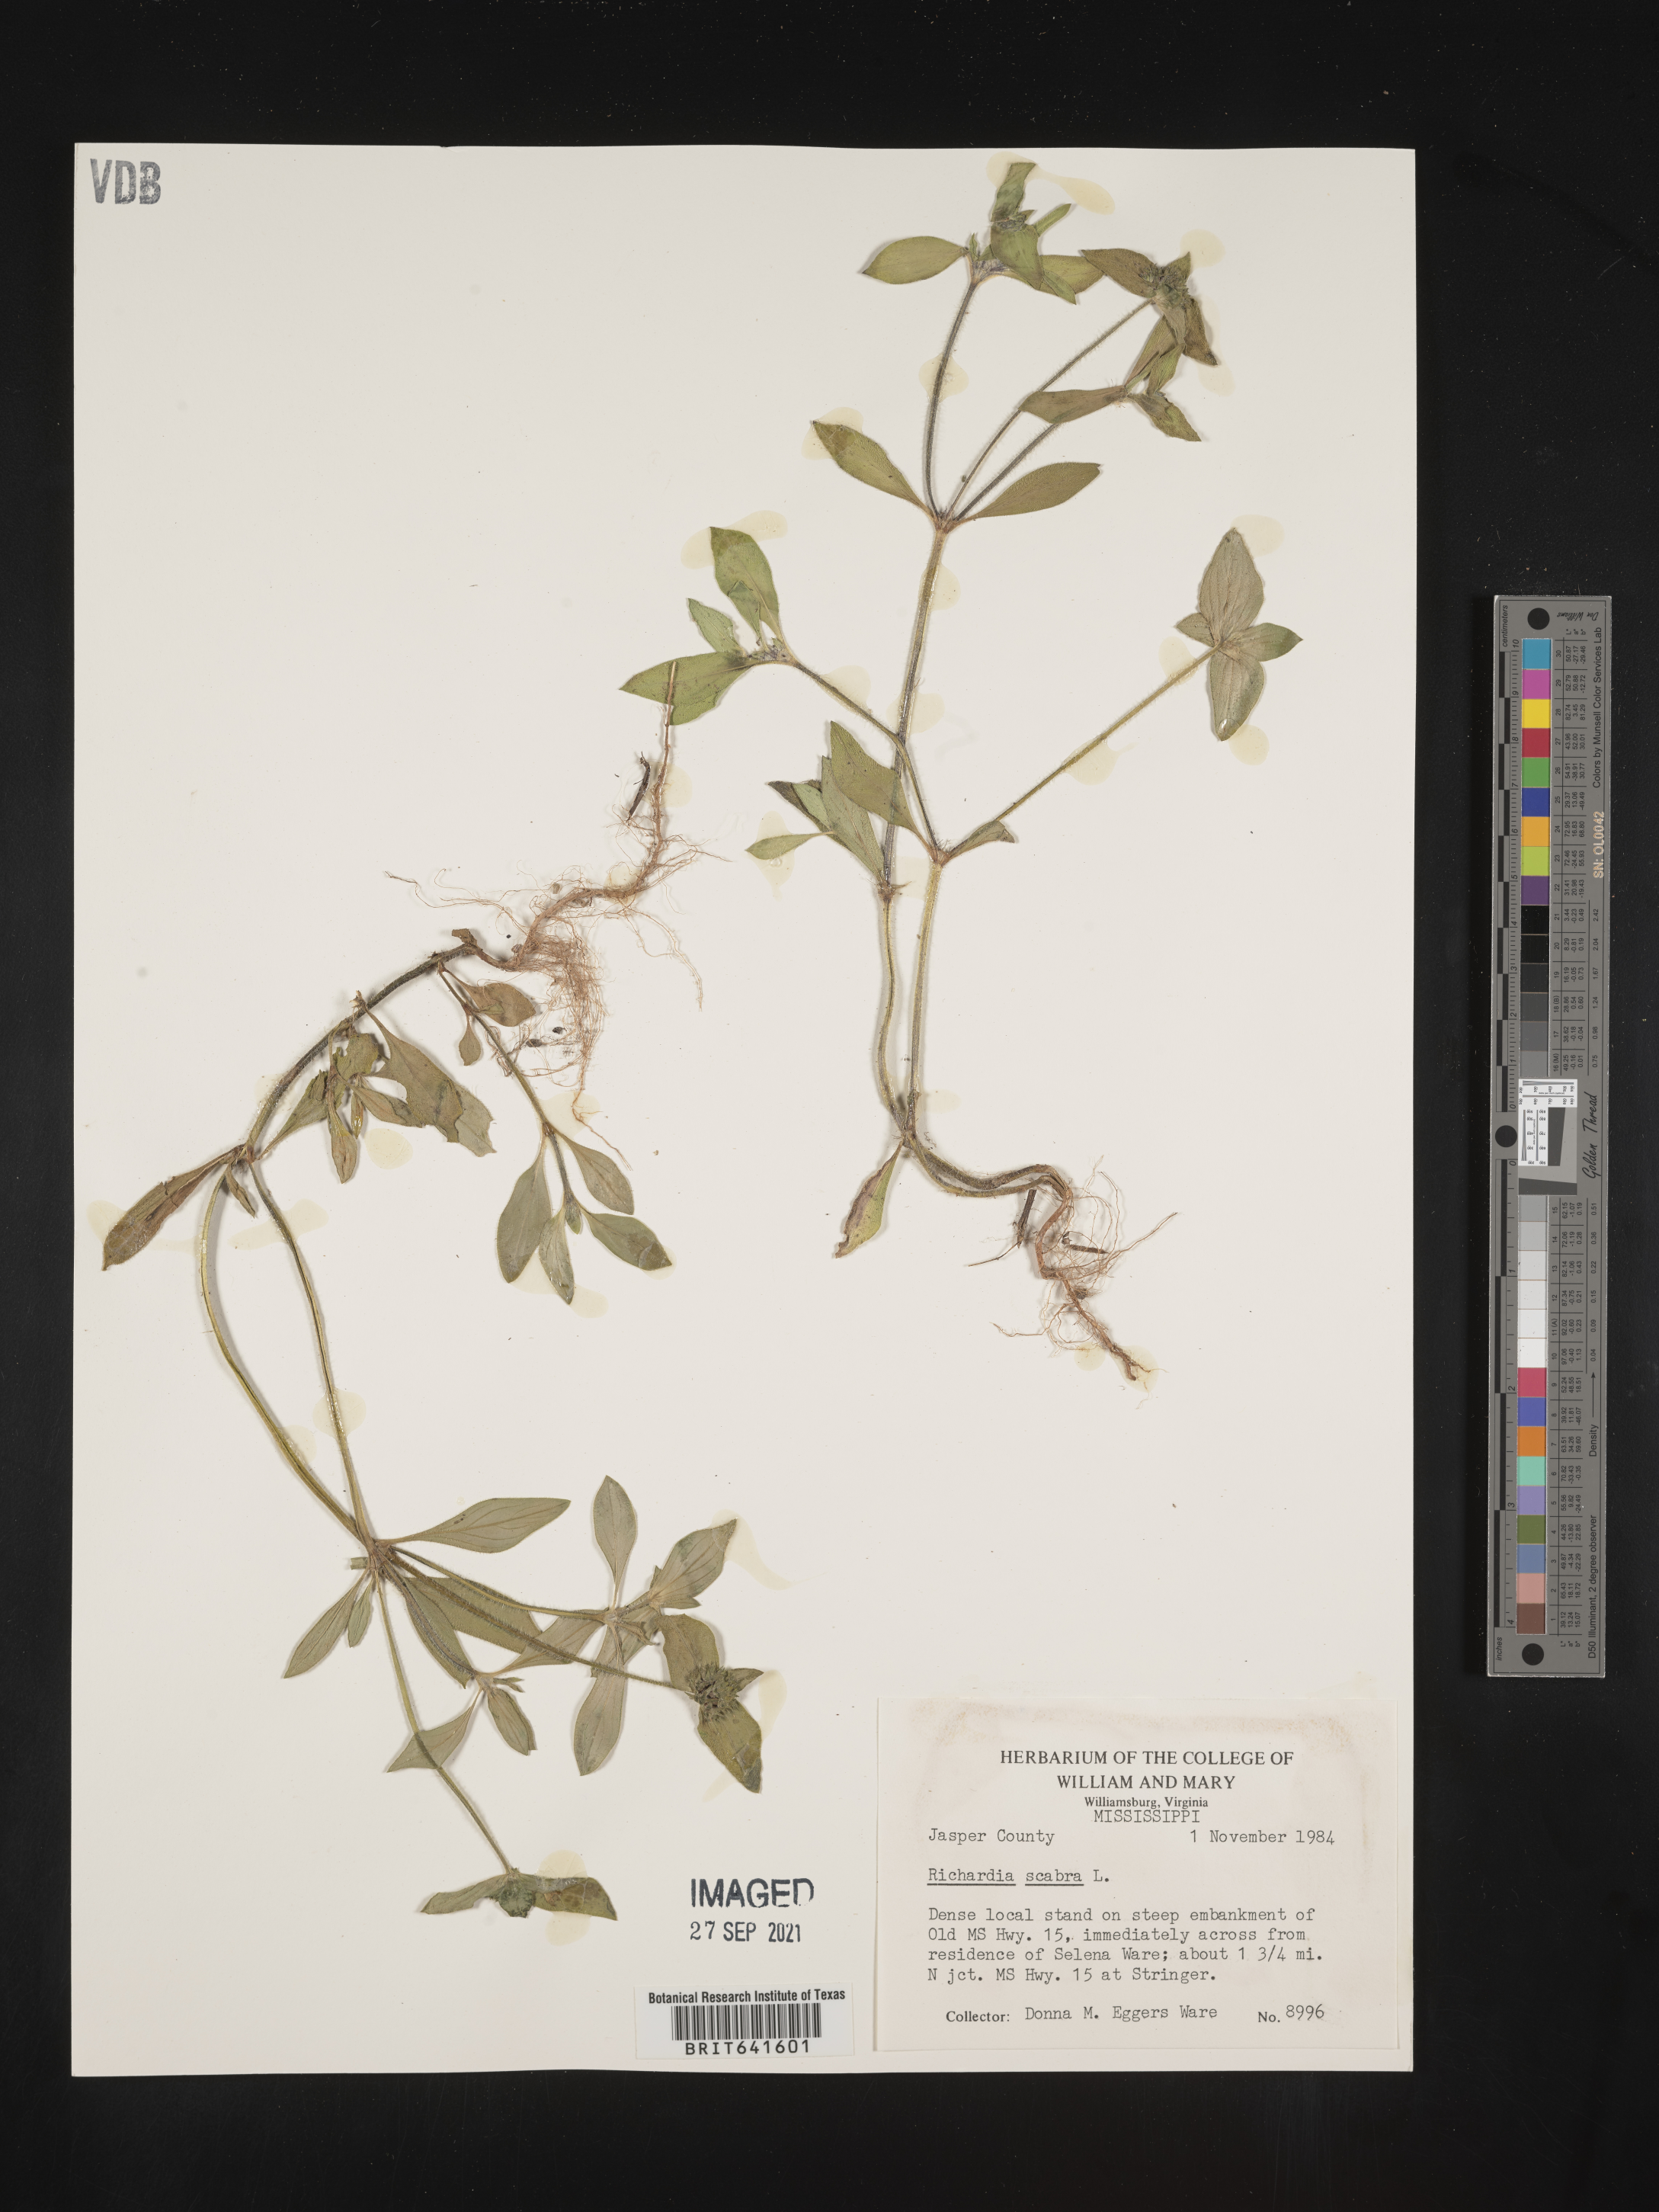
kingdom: Plantae
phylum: Tracheophyta
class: Magnoliopsida
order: Gentianales
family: Rubiaceae
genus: Richardia
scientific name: Richardia scabra
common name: Rough mexican clover
